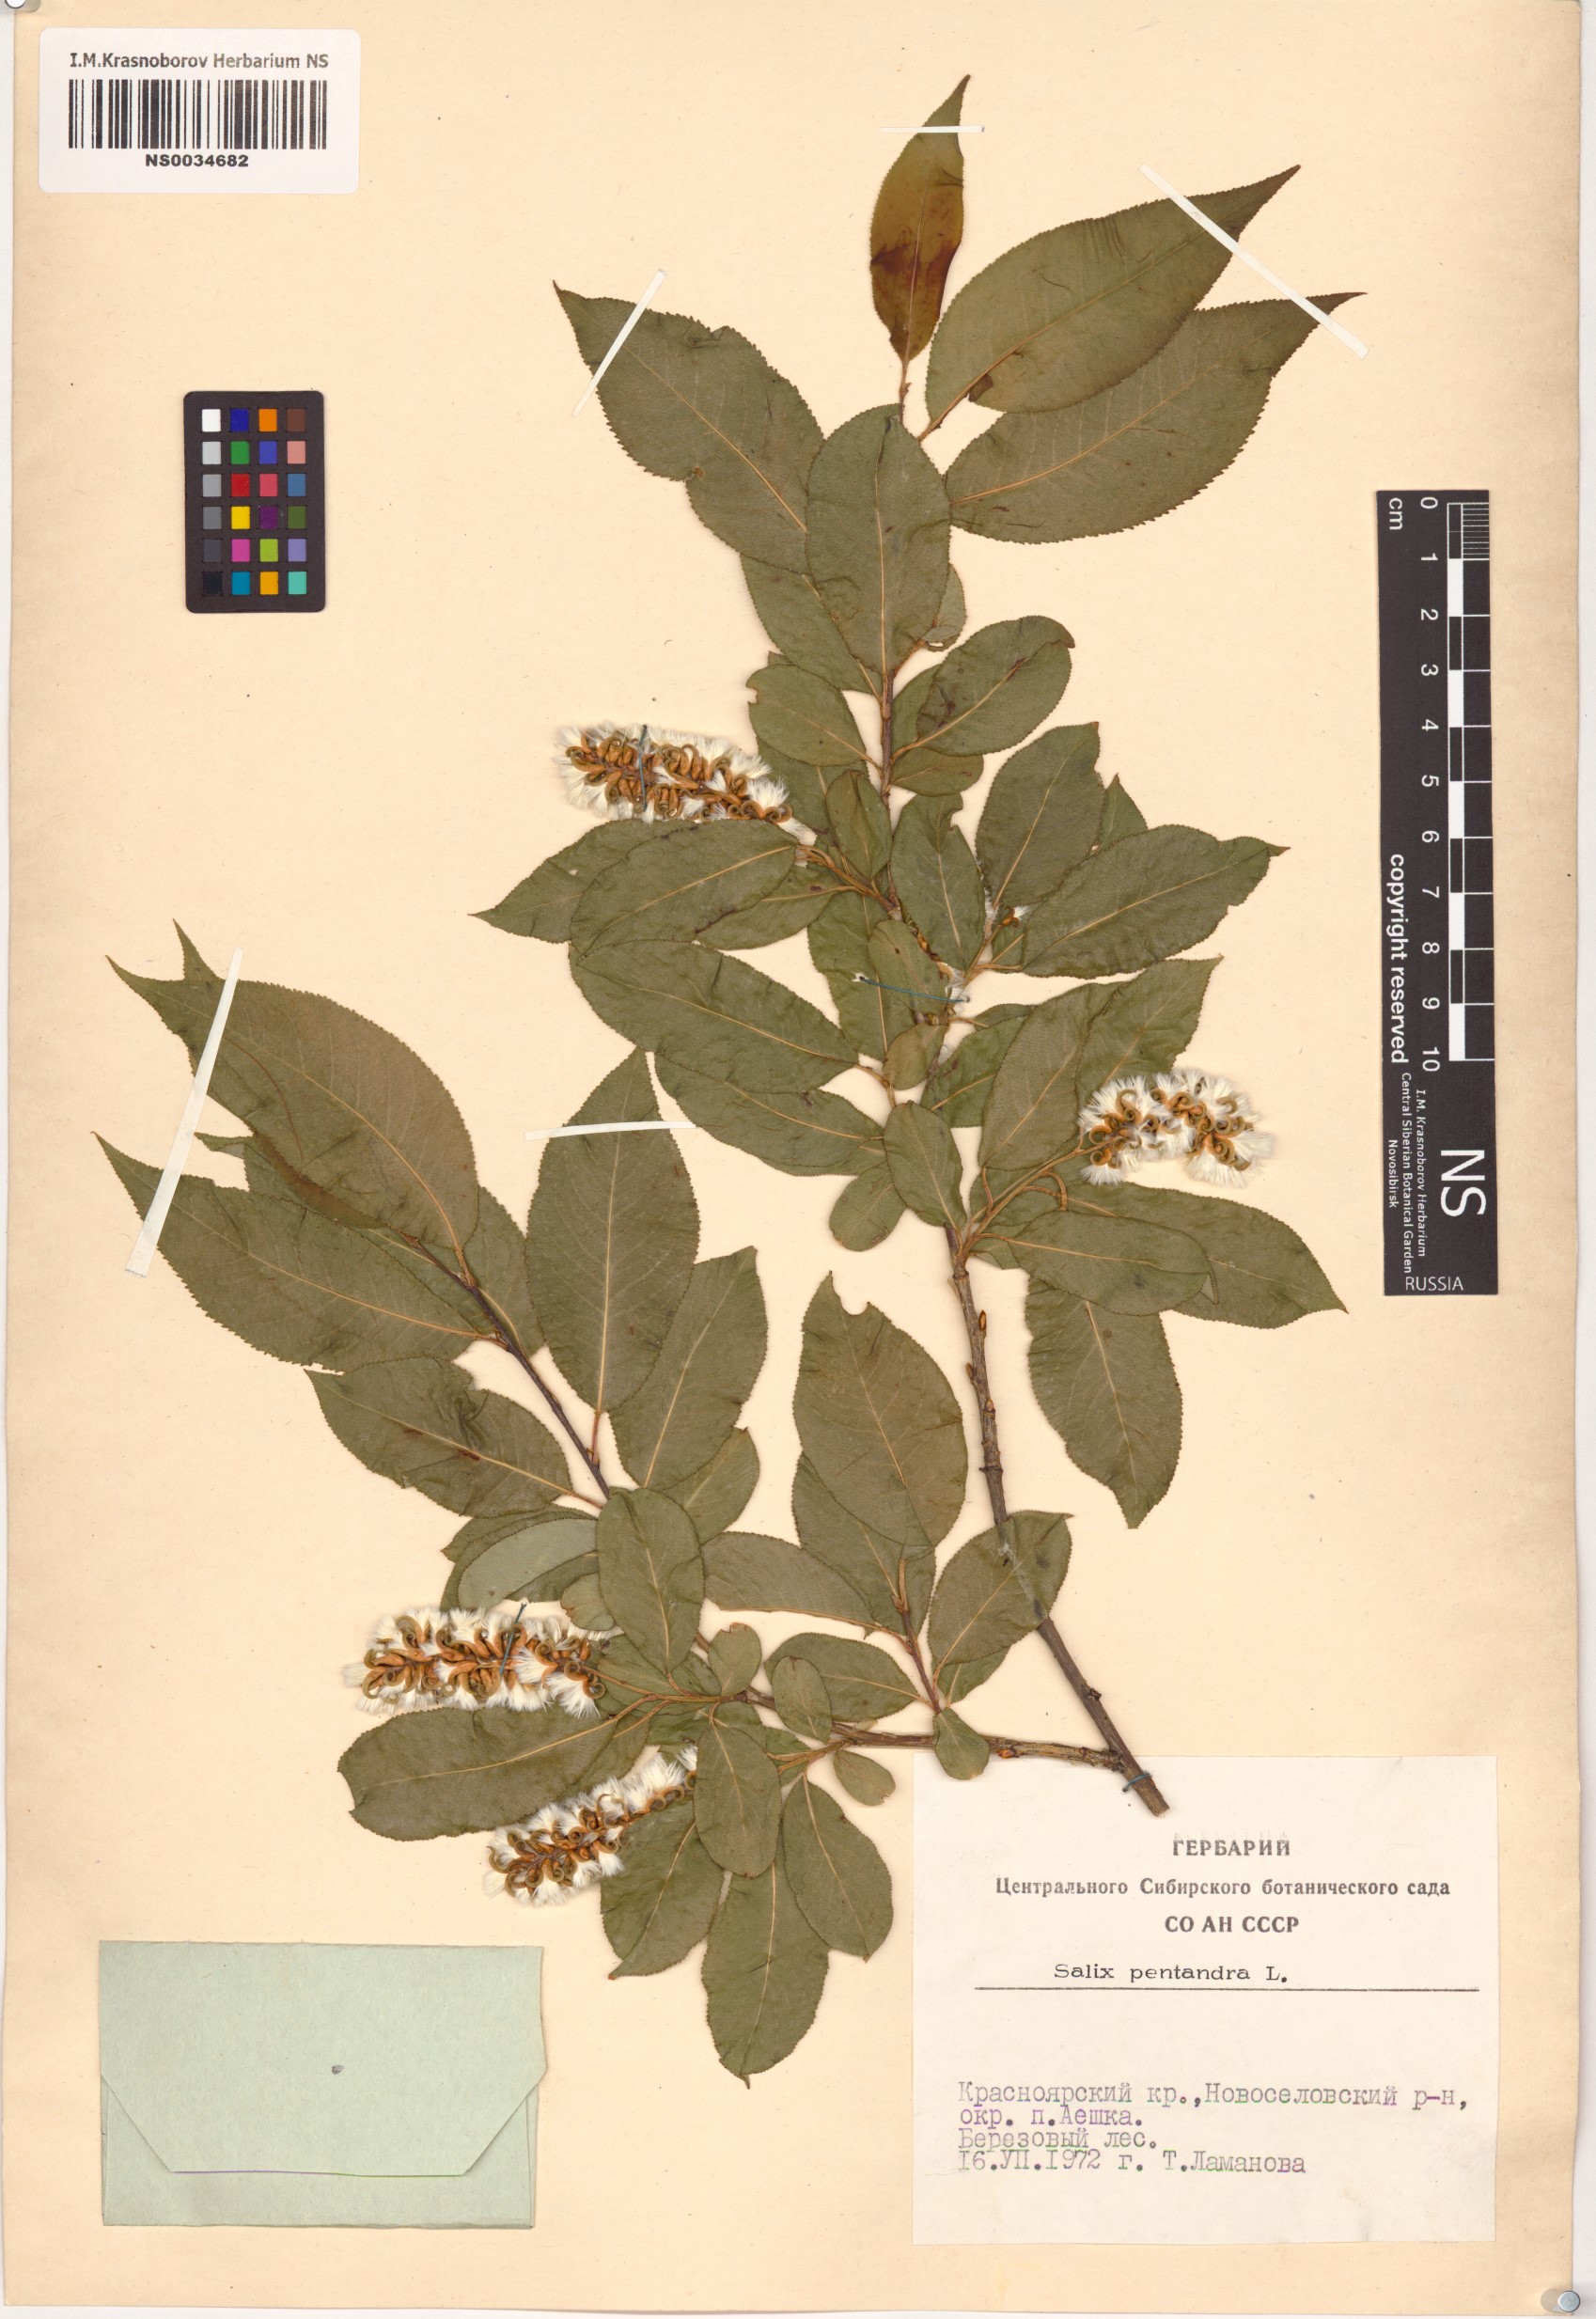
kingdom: Plantae
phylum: Tracheophyta
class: Magnoliopsida
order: Malpighiales
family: Salicaceae
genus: Salix
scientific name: Salix pentandra
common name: Bay willow
